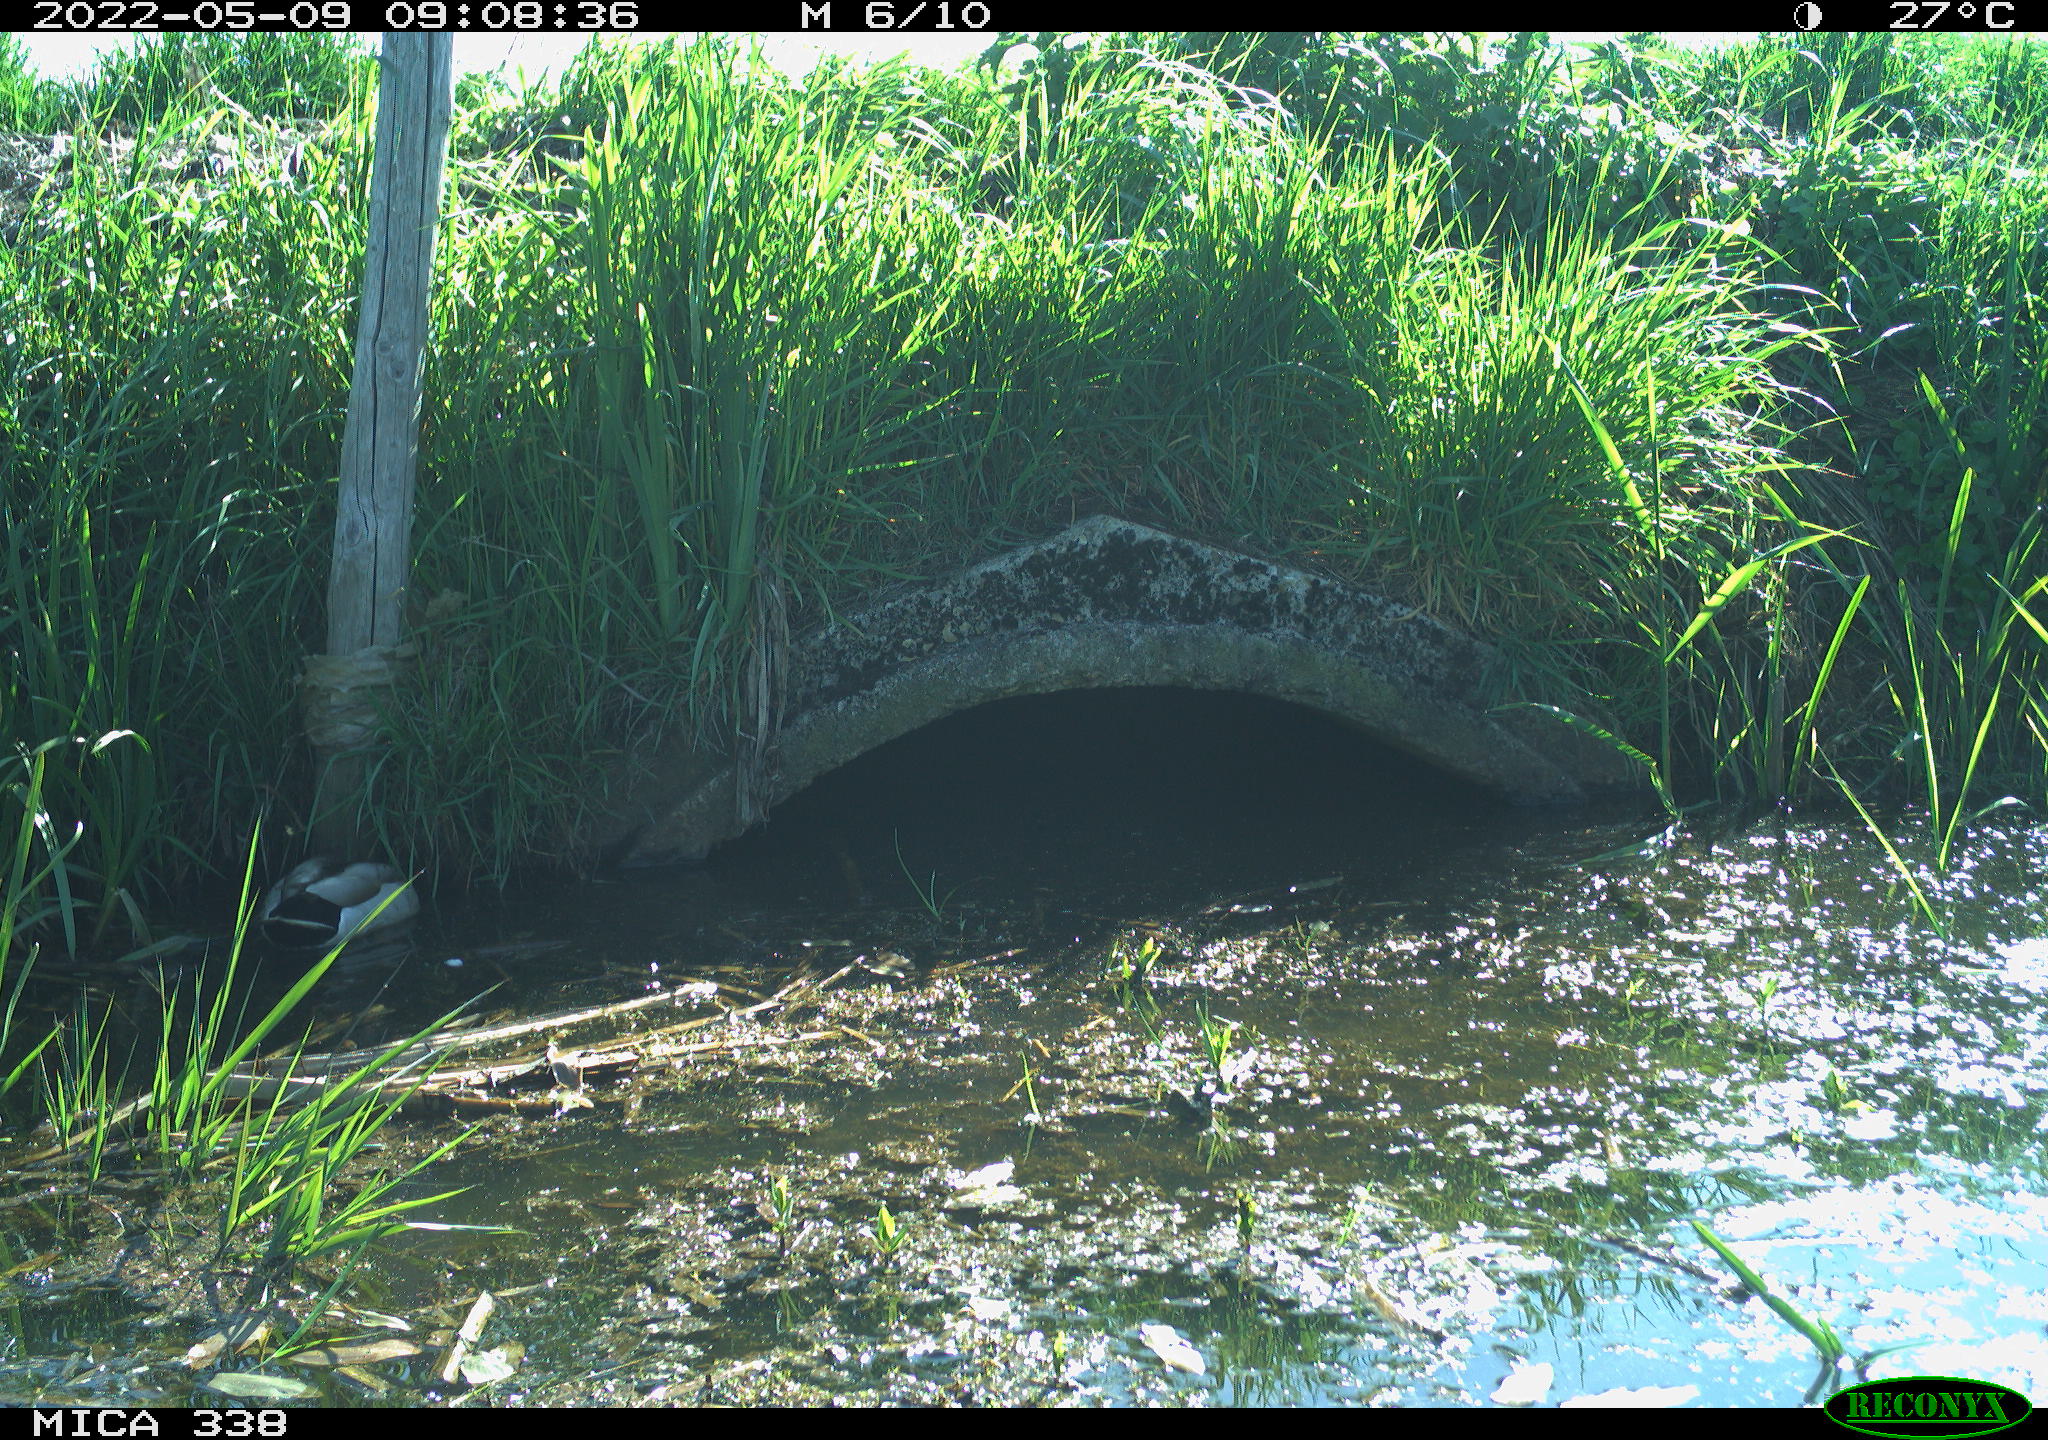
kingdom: Animalia
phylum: Chordata
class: Aves
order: Anseriformes
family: Anatidae
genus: Anas
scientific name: Anas platyrhynchos
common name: Mallard
